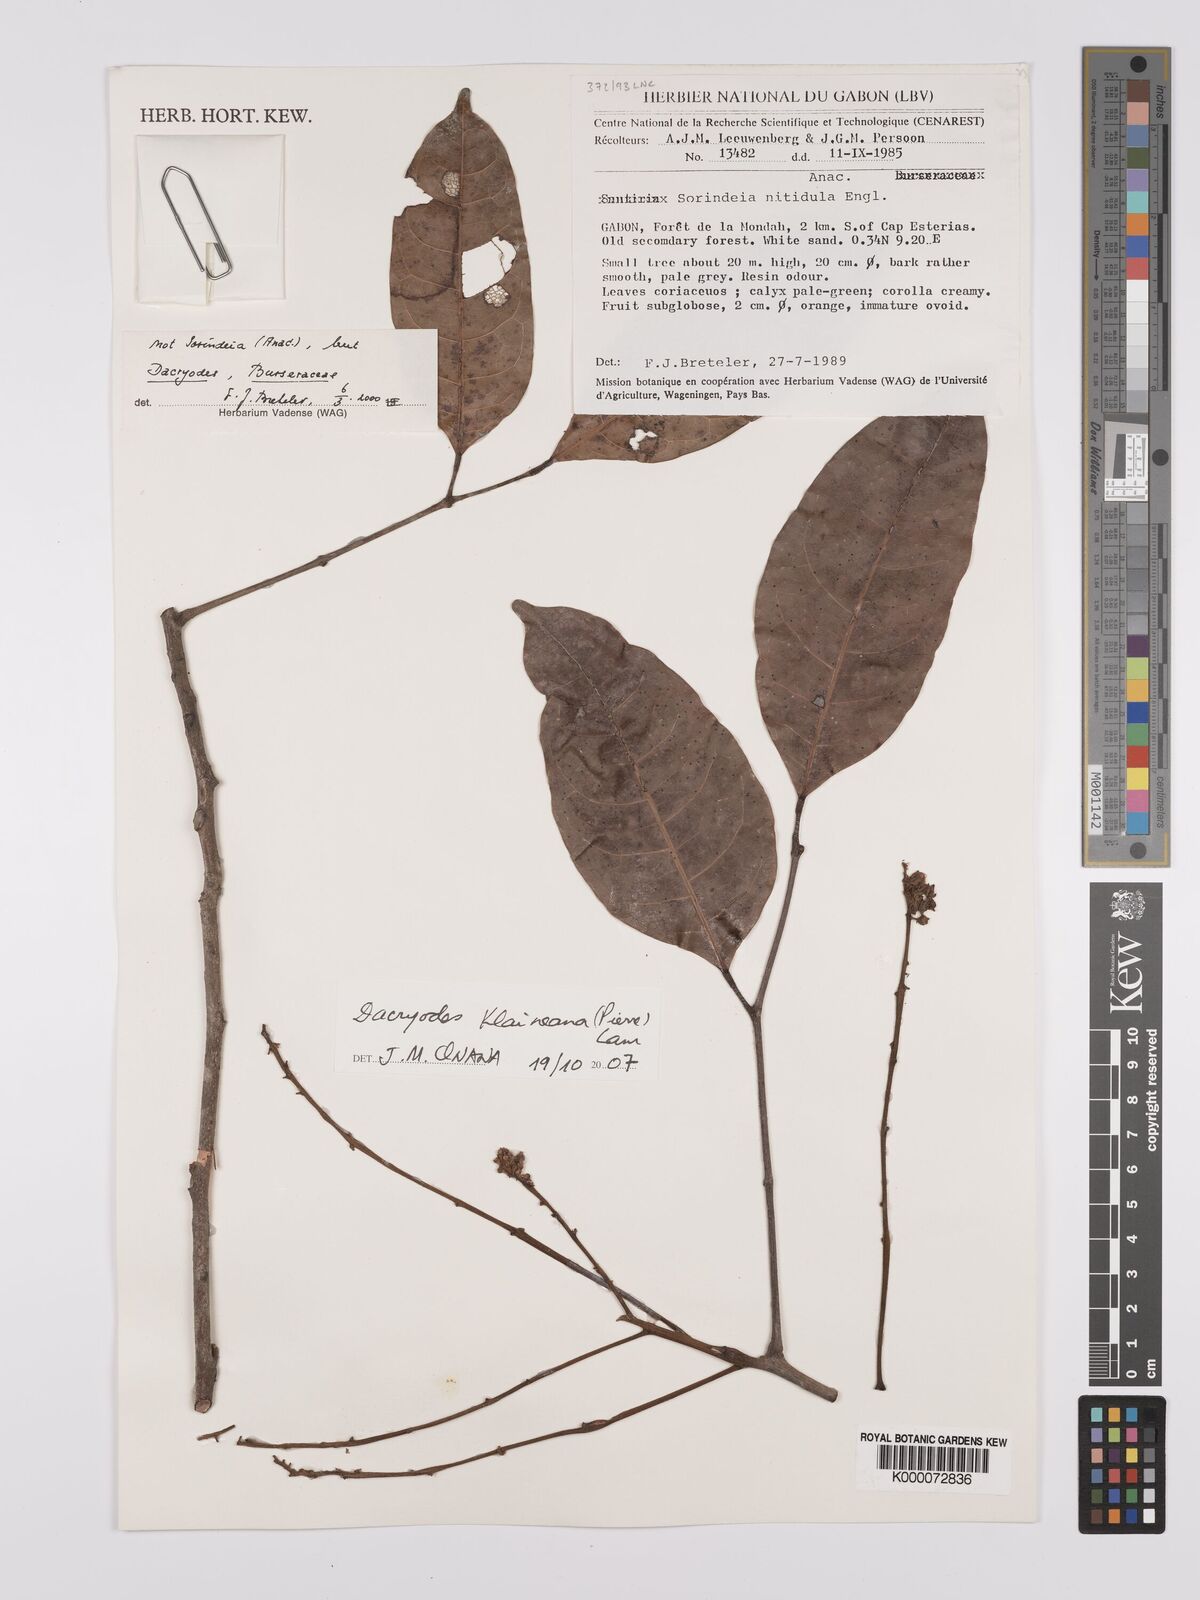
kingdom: Plantae
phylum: Tracheophyta
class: Magnoliopsida
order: Sapindales
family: Burseraceae
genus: Pachylobus
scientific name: Pachylobus klaineana
